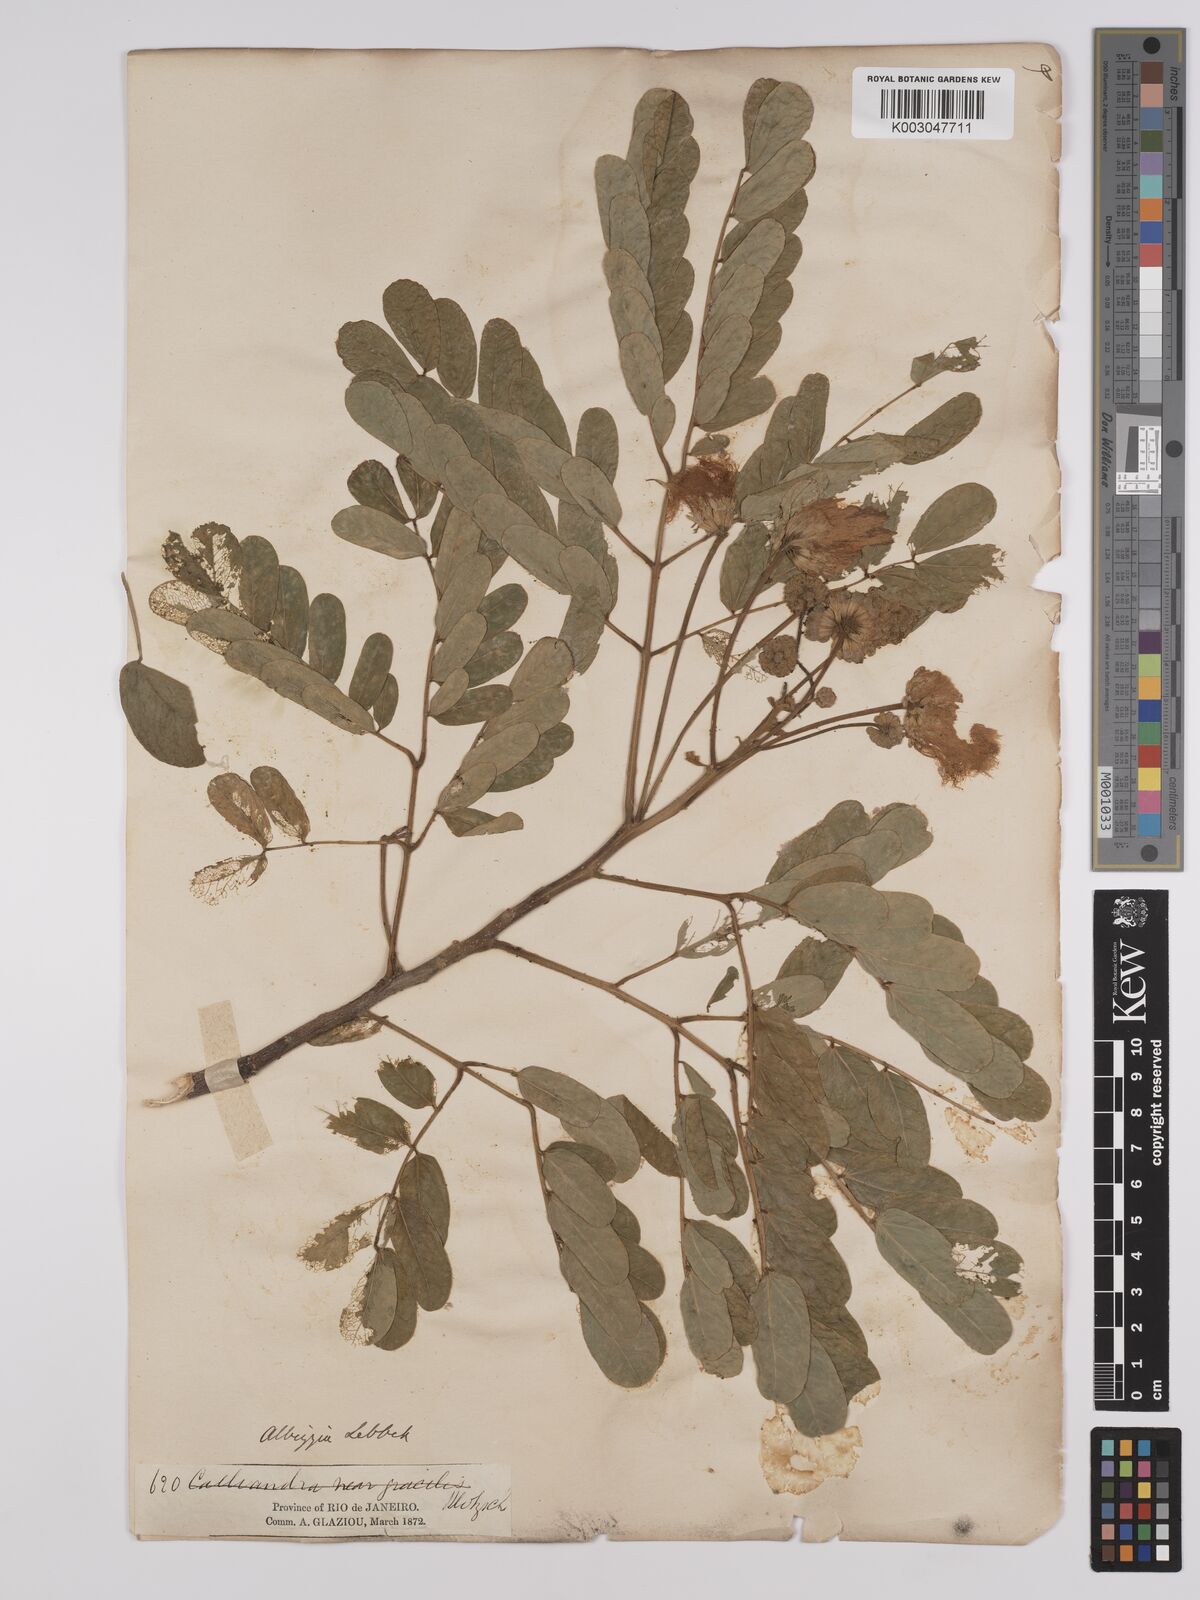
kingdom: Plantae
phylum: Tracheophyta
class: Magnoliopsida
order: Fabales
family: Fabaceae
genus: Albizia
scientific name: Albizia lebbeck
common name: Woman's tongue
